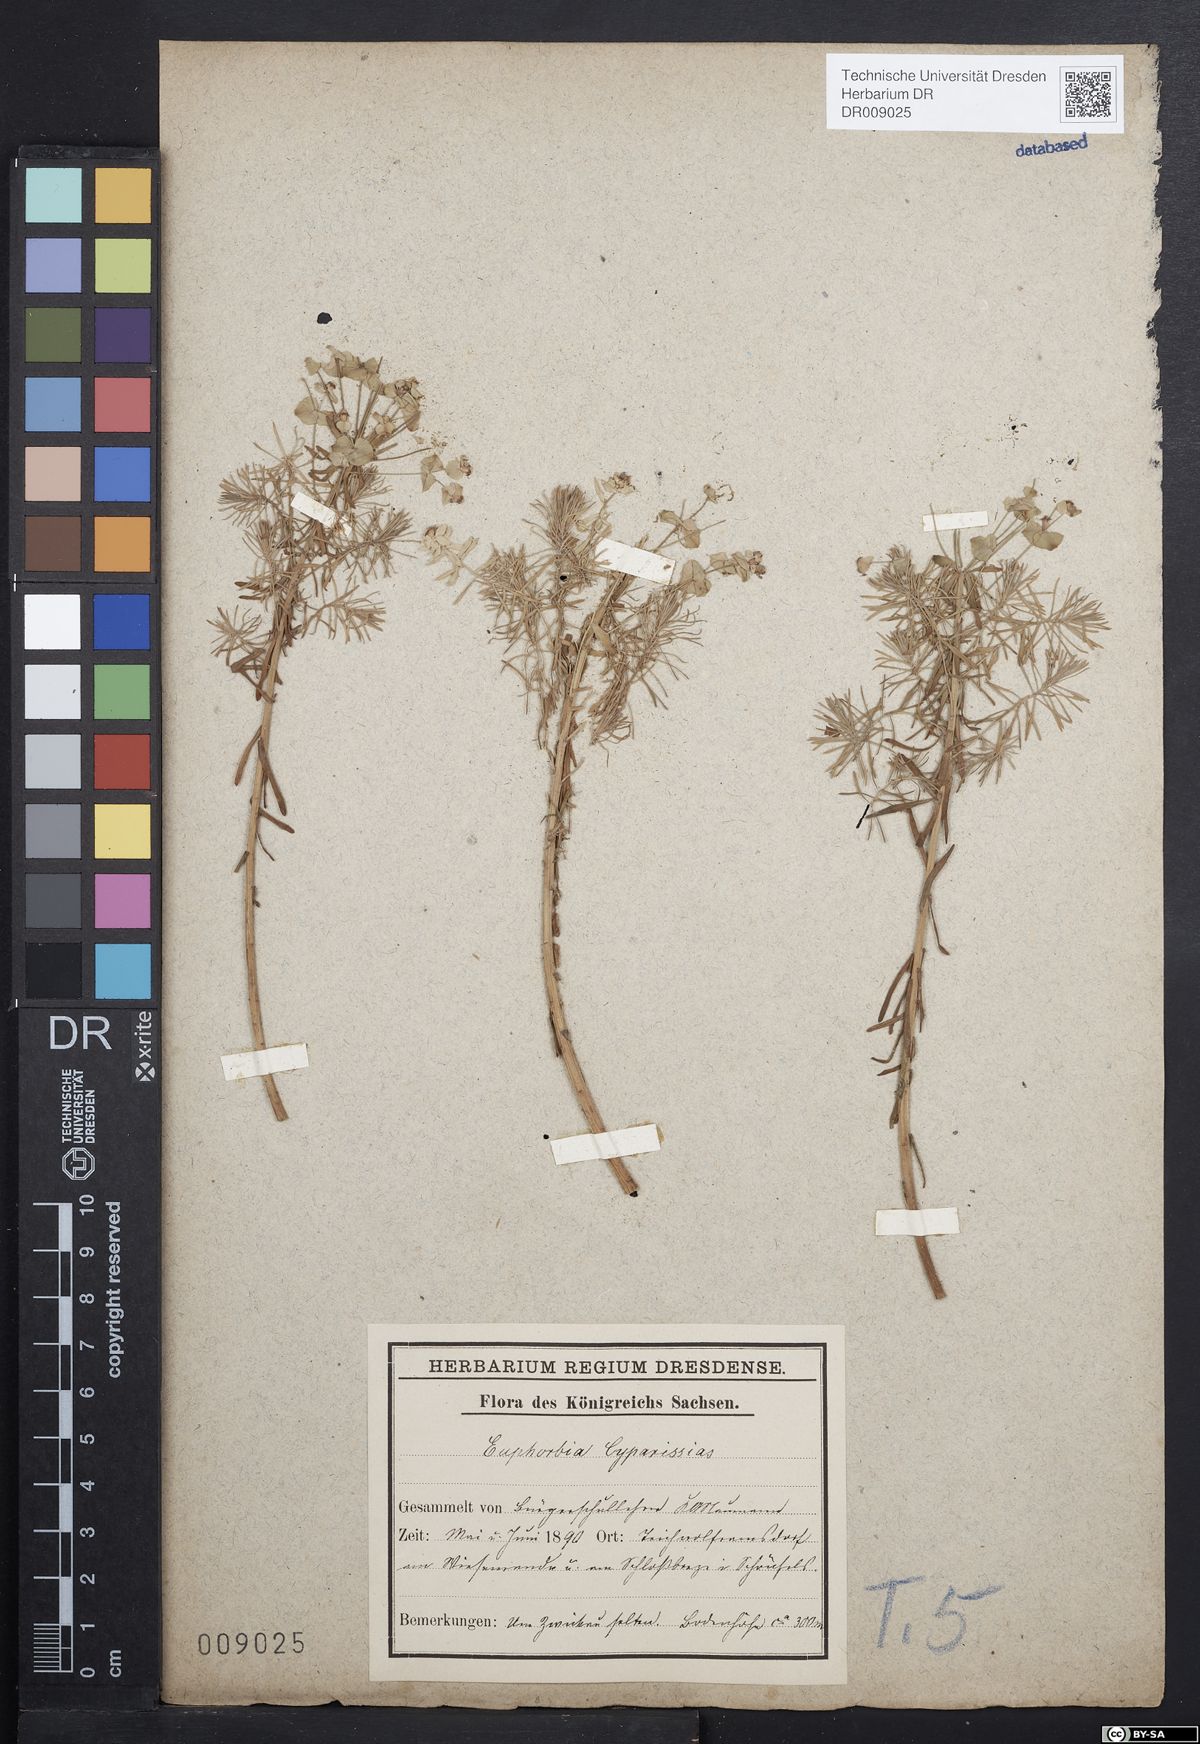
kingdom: Plantae
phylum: Tracheophyta
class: Magnoliopsida
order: Malpighiales
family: Euphorbiaceae
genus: Euphorbia
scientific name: Euphorbia cyparissias
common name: Cypress spurge
